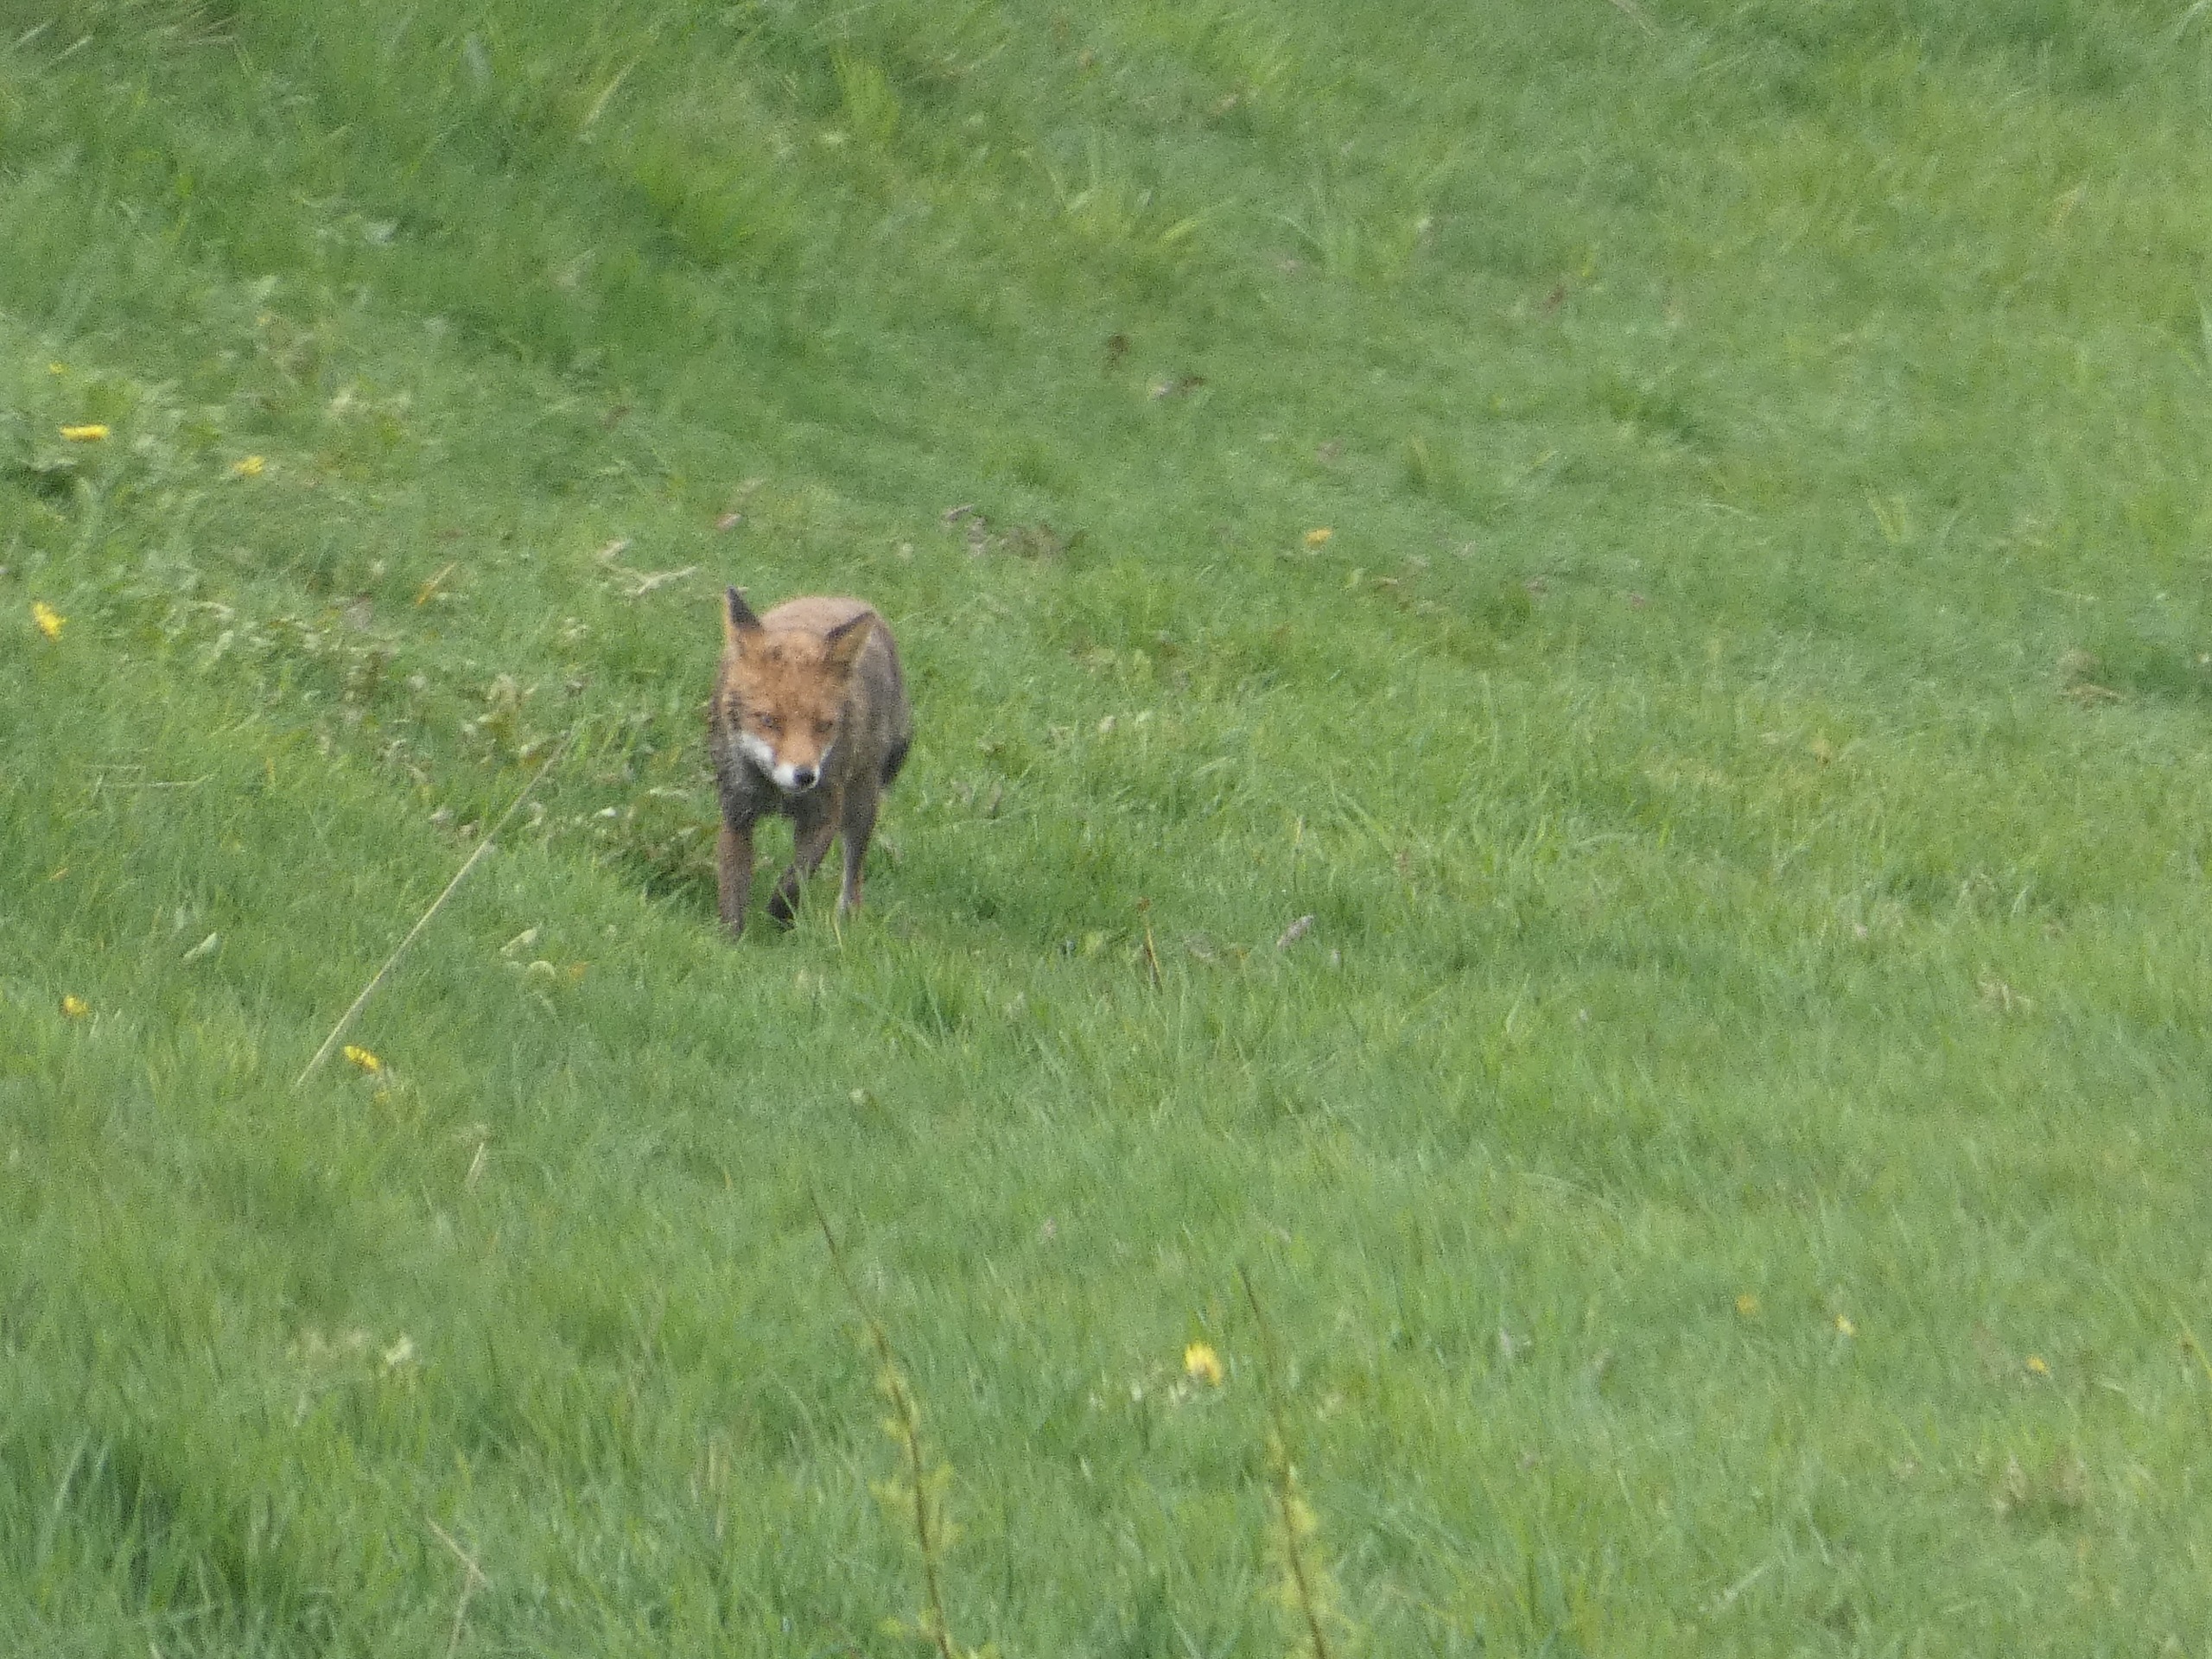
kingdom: Animalia
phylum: Chordata
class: Mammalia
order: Carnivora
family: Canidae
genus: Vulpes
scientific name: Vulpes vulpes
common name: Ræv
